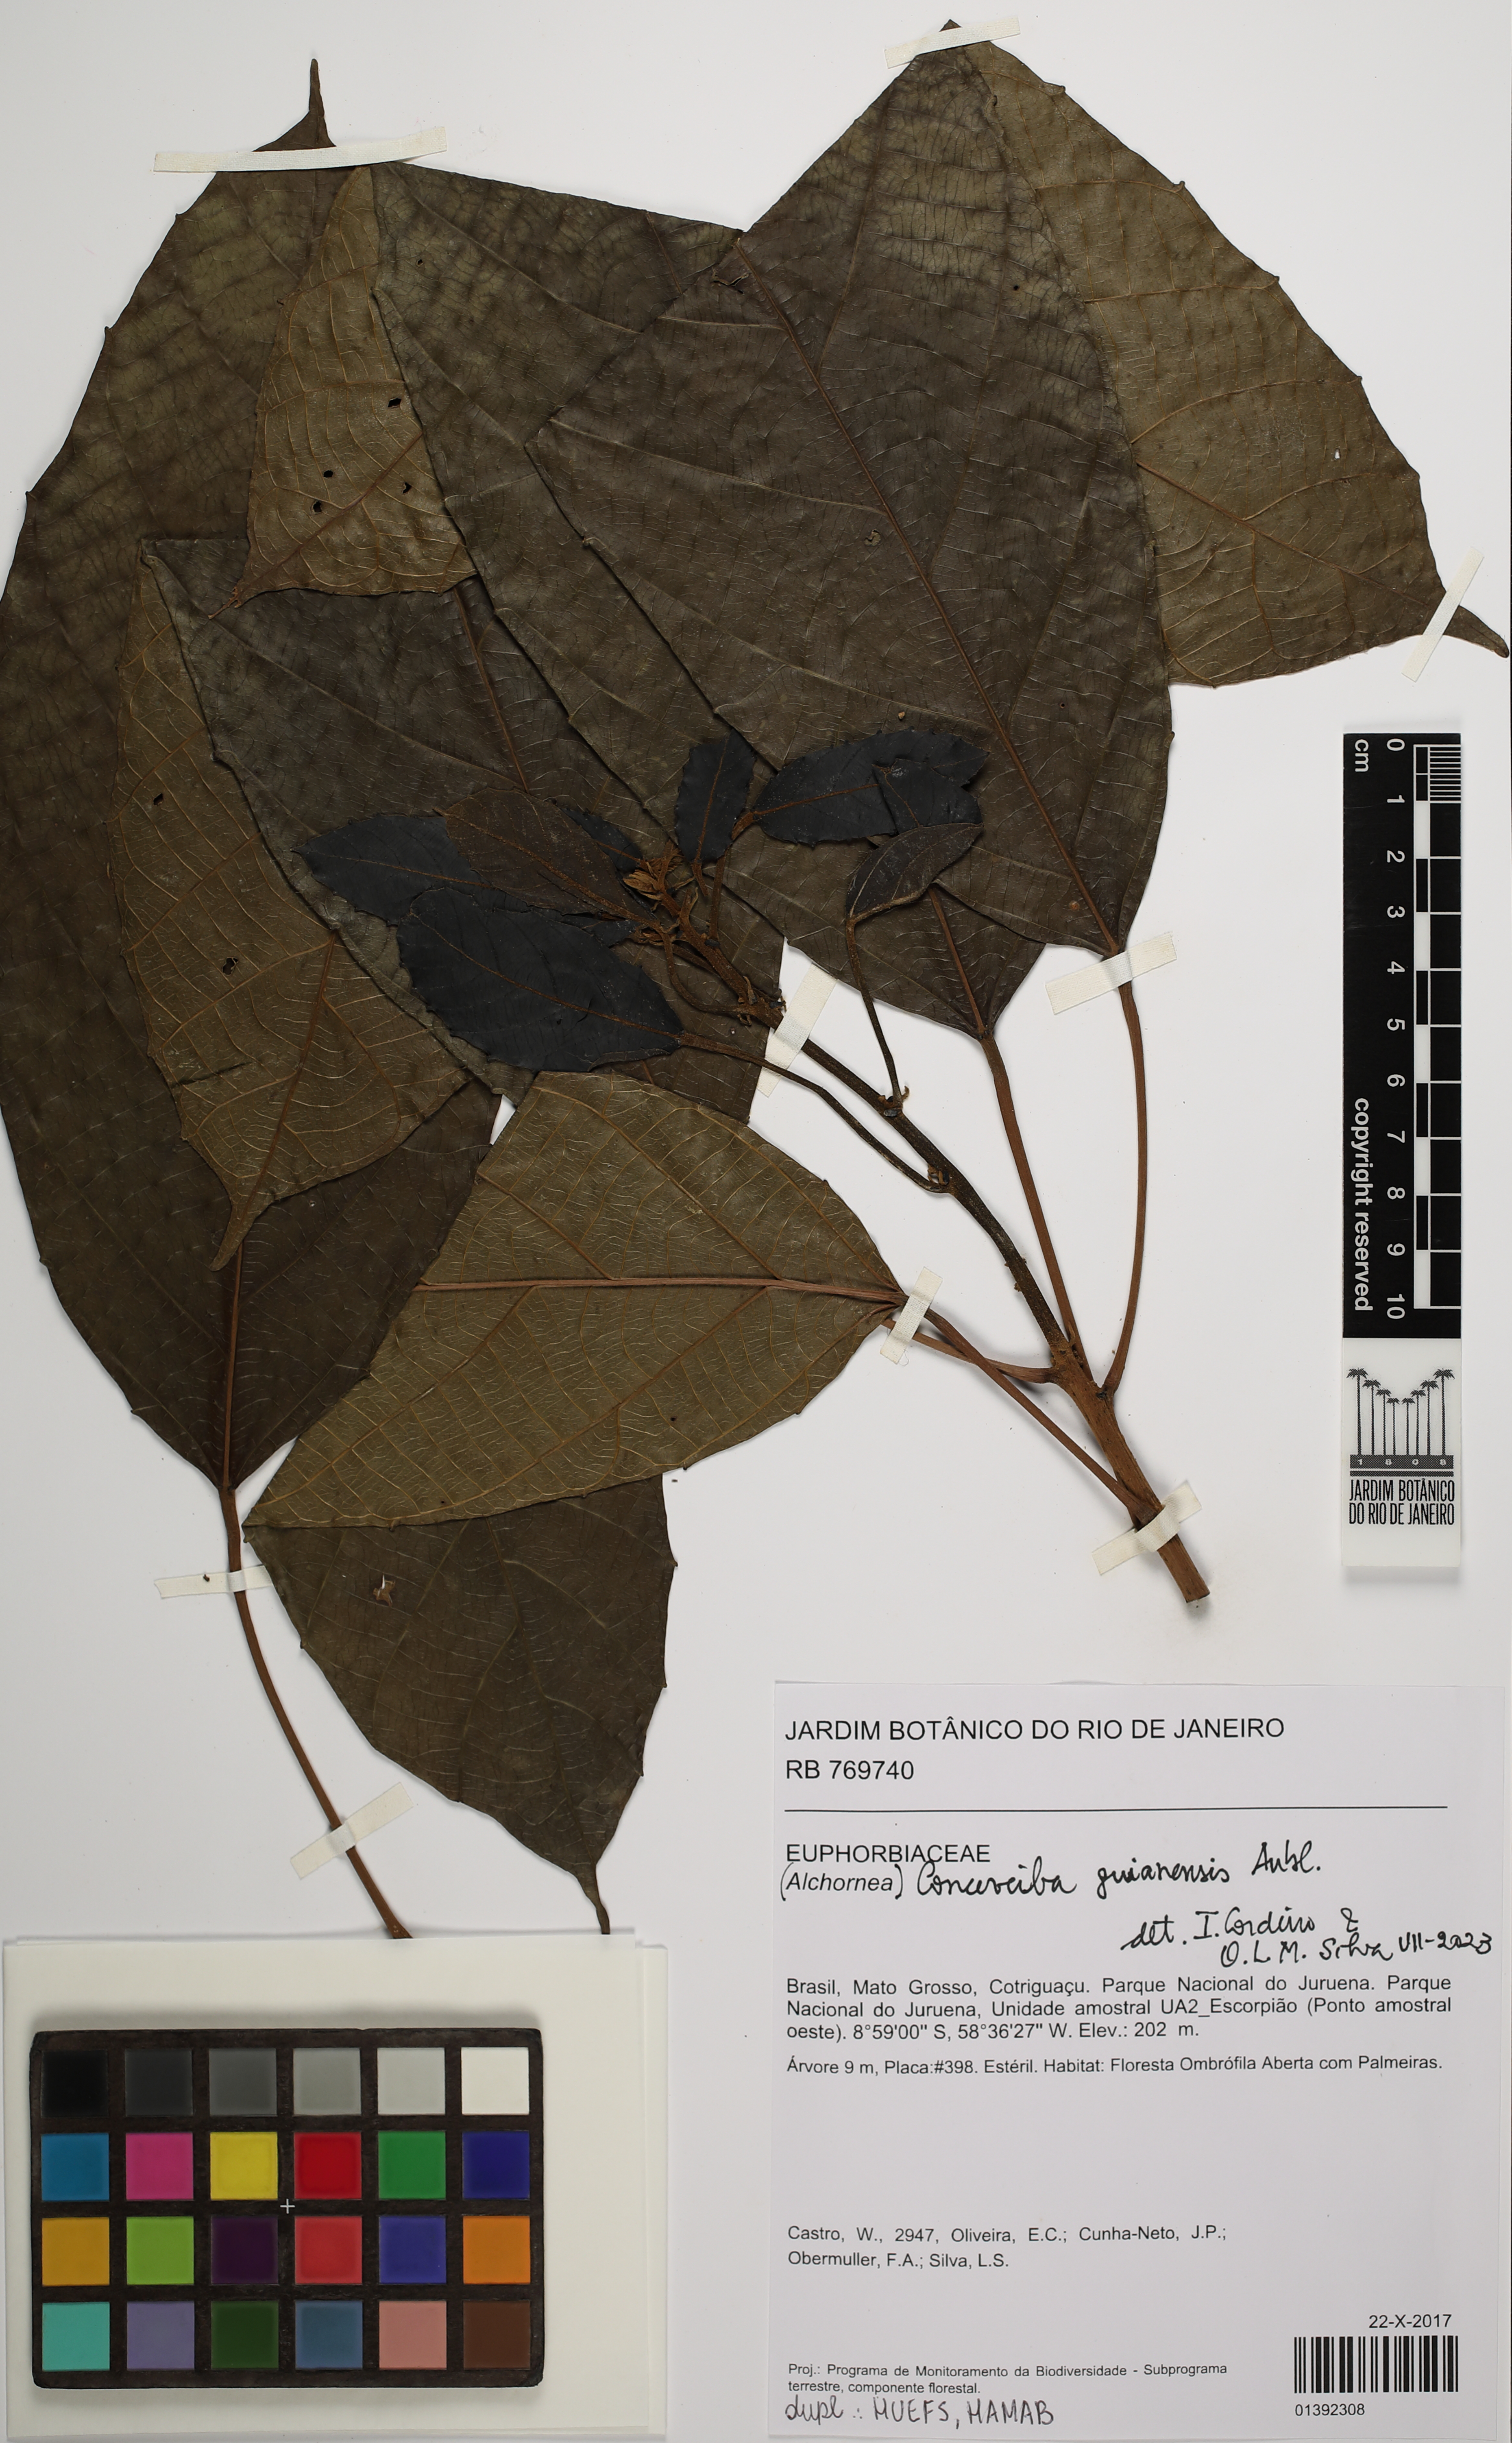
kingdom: Plantae
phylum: Tracheophyta
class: Magnoliopsida
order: Malpighiales
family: Euphorbiaceae
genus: Conceveiba
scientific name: Conceveiba guianensis
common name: Poatoru
